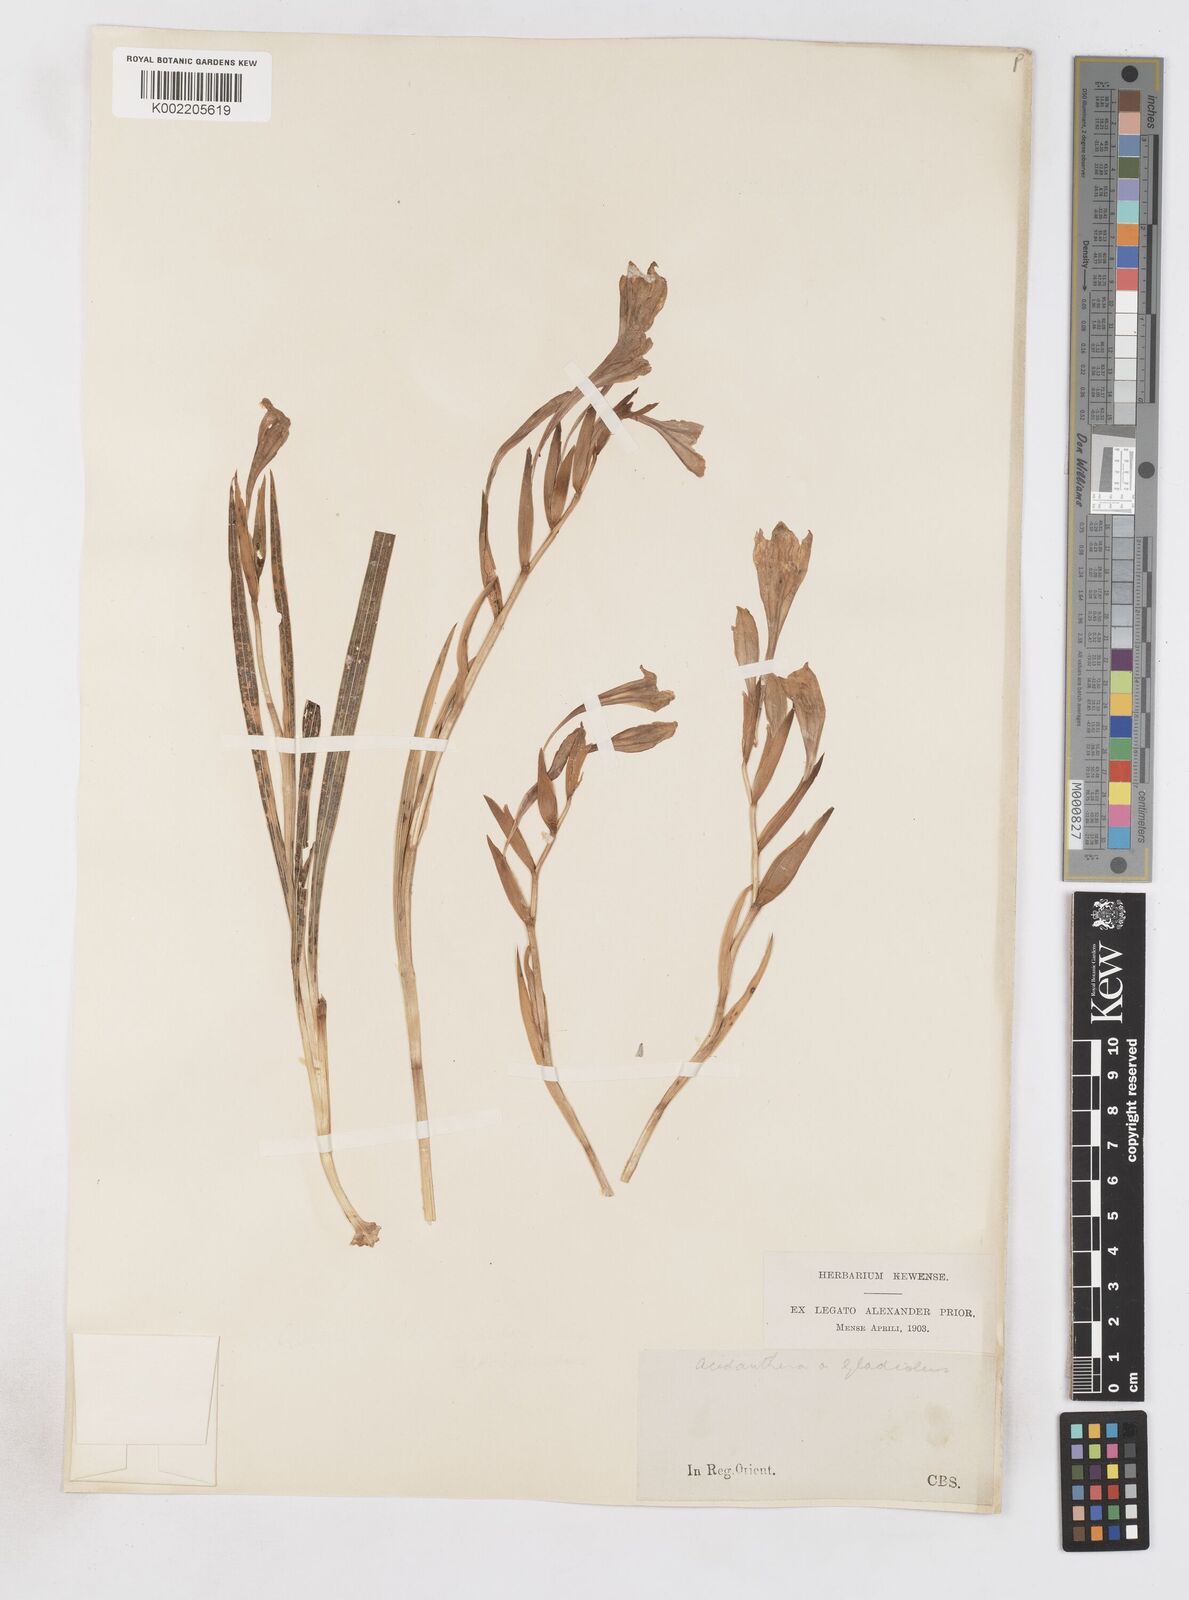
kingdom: Plantae
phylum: Tracheophyta
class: Liliopsida
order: Asparagales
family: Iridaceae
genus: Gladiolus
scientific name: Gladiolus floribundus
